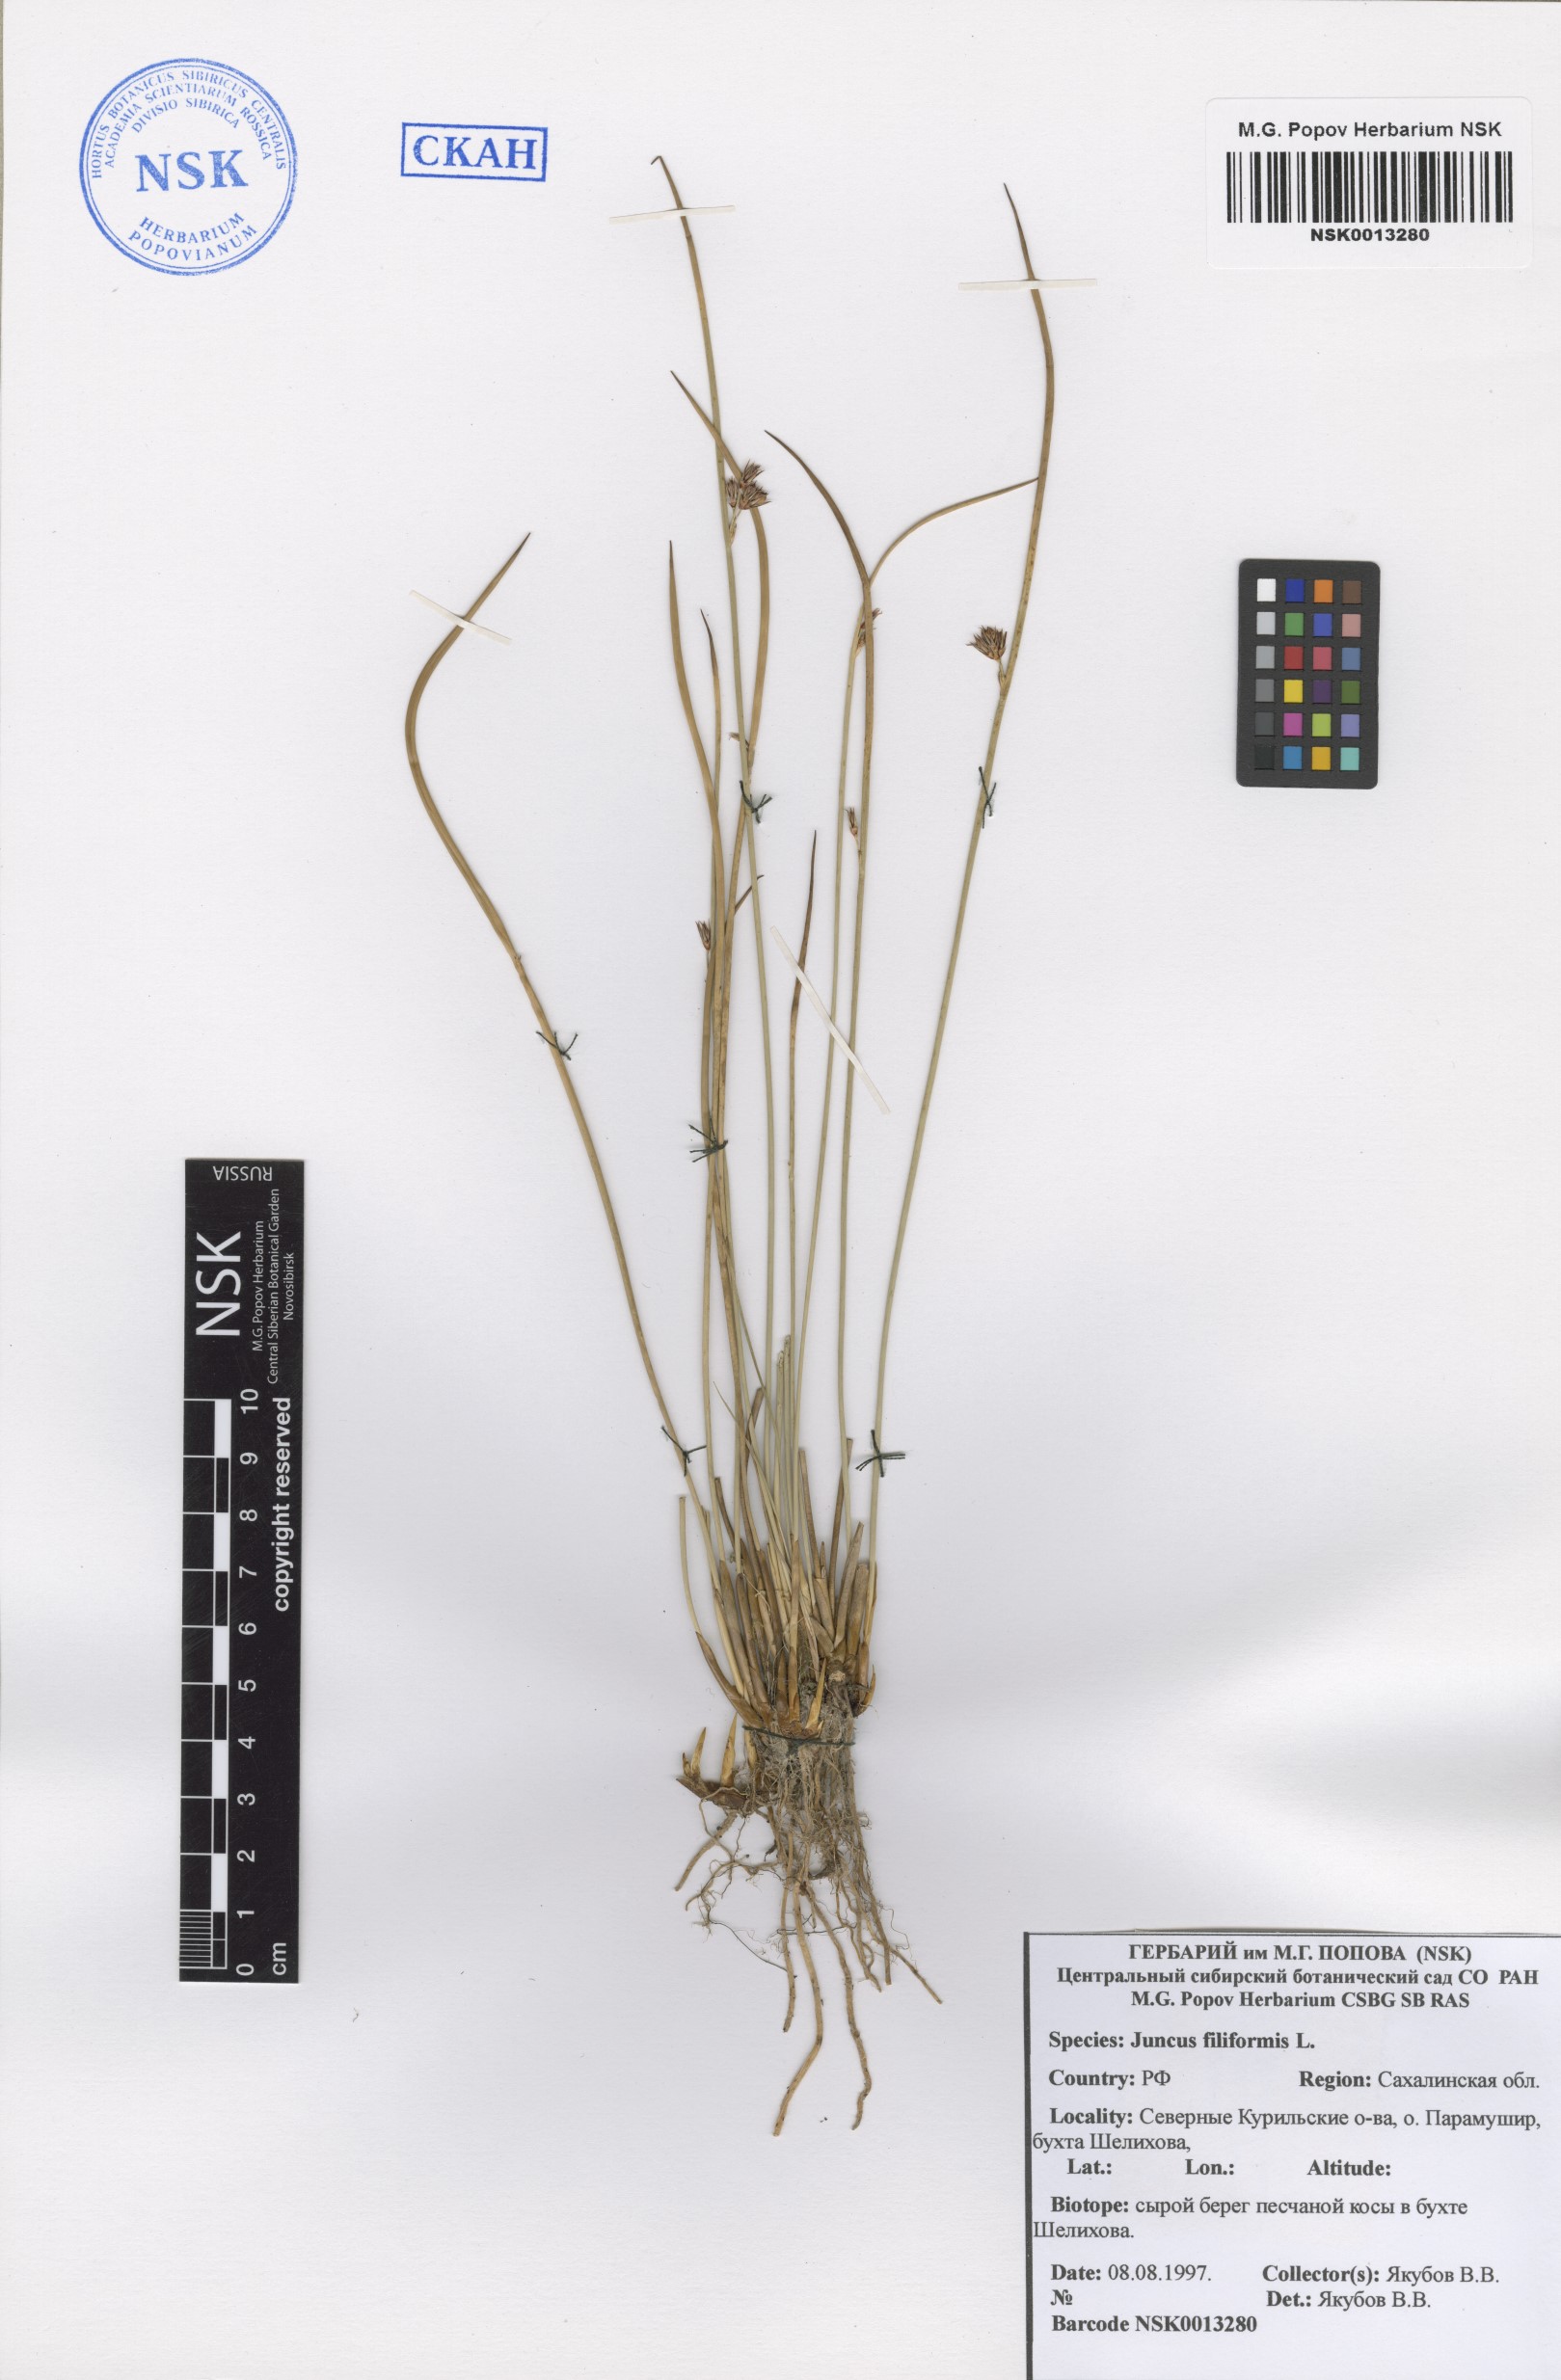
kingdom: Plantae
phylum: Tracheophyta
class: Liliopsida
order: Poales
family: Juncaceae
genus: Juncus
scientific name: Juncus filiformis
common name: Thread rush
